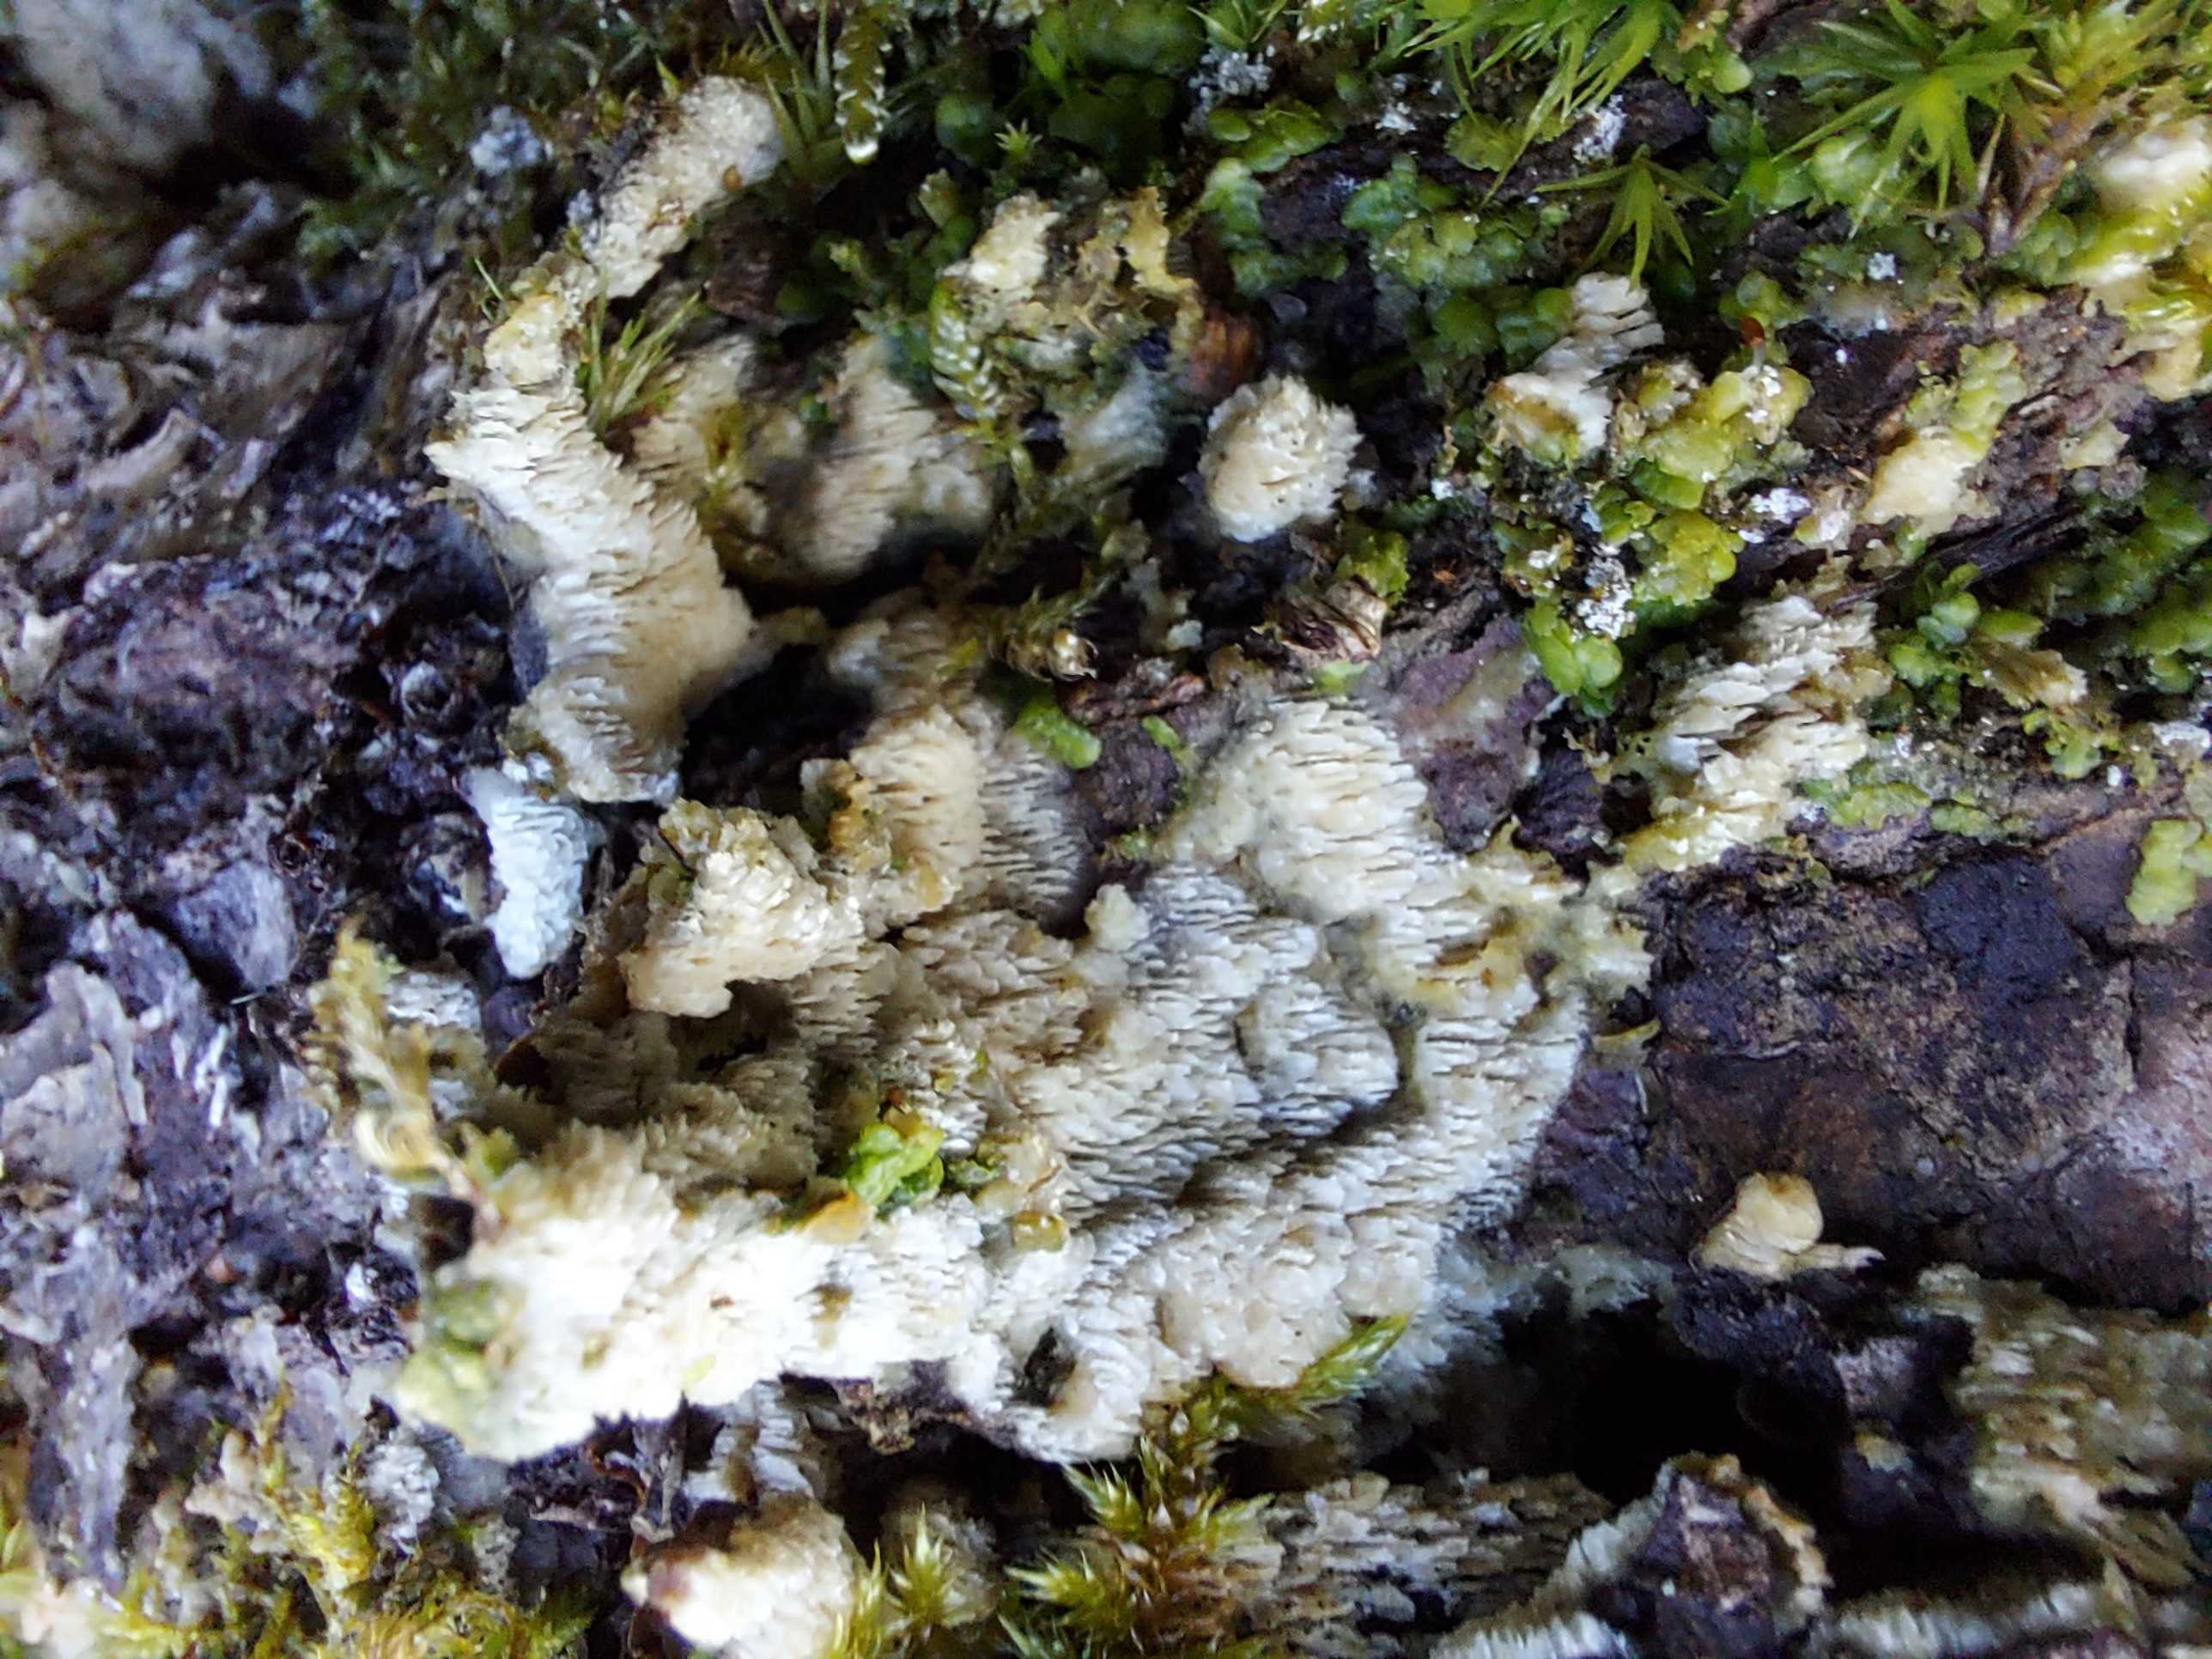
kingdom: Fungi
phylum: Basidiomycota
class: Agaricomycetes
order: Polyporales
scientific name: Polyporales
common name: poresvampordenen
